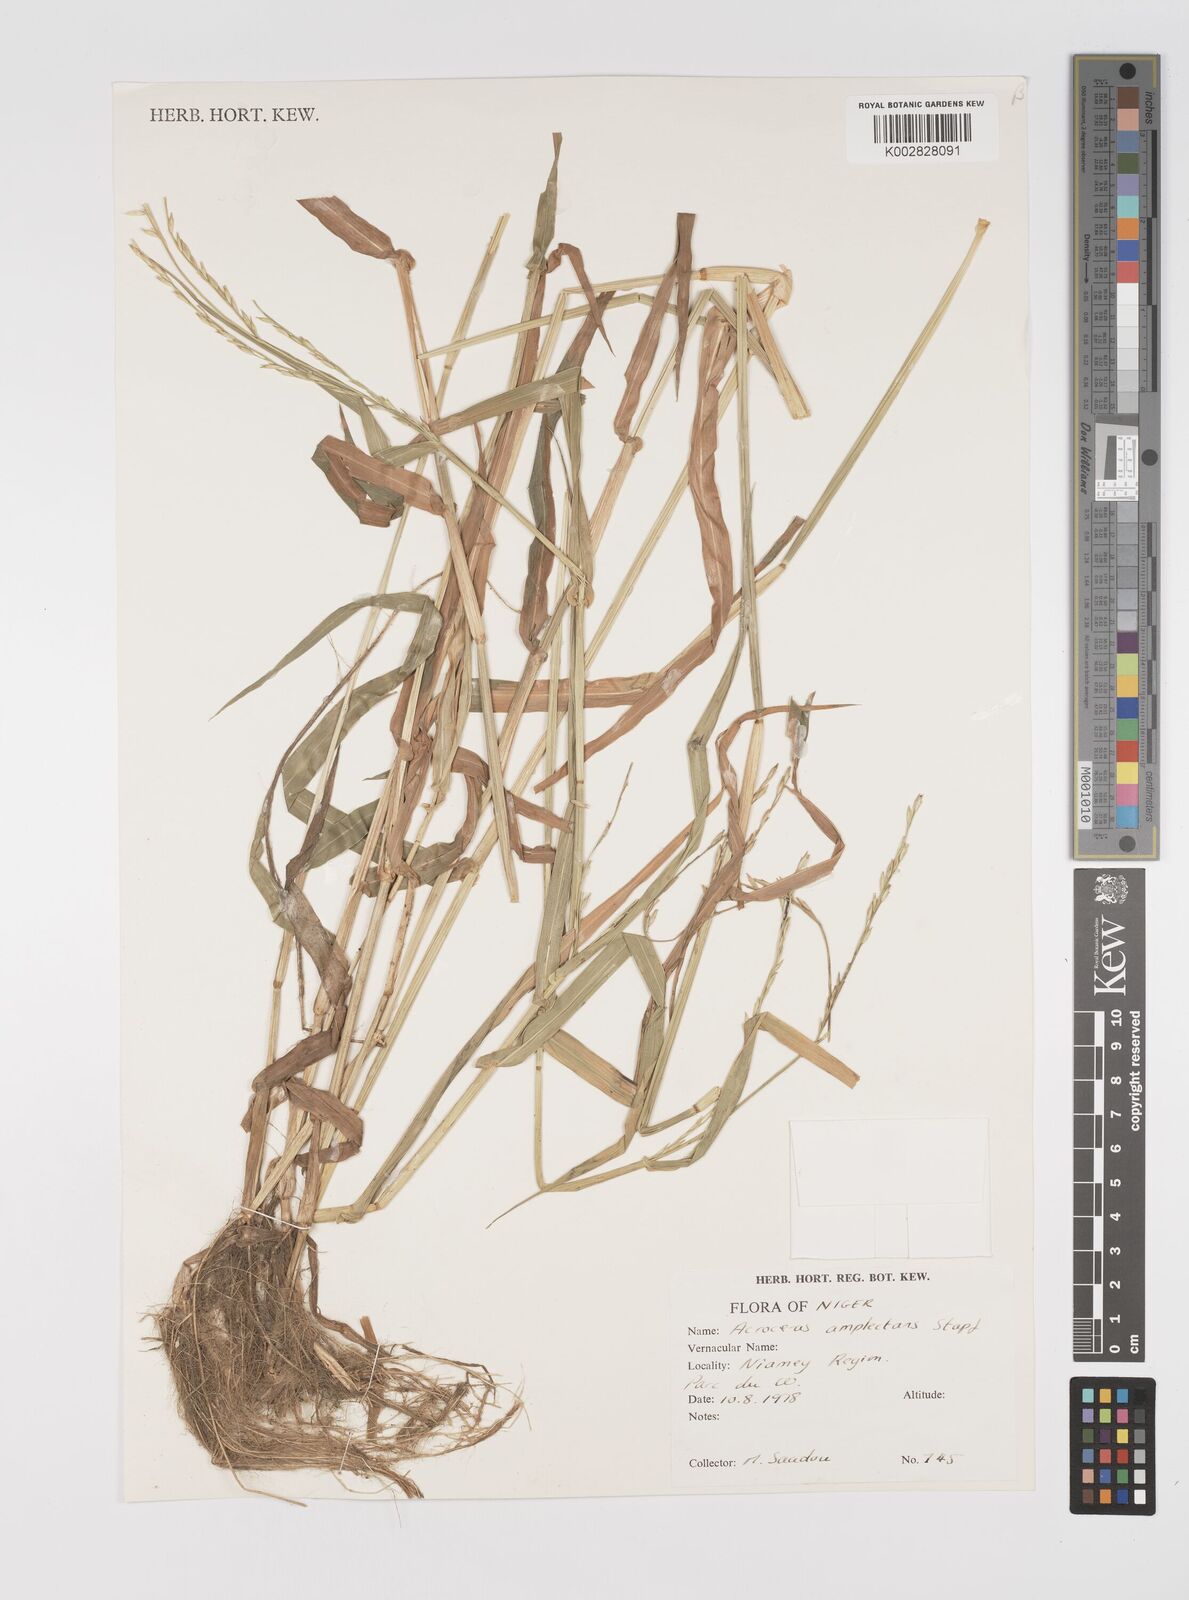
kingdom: Plantae
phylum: Tracheophyta
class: Liliopsida
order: Poales
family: Poaceae
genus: Acroceras
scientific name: Acroceras amplectens
